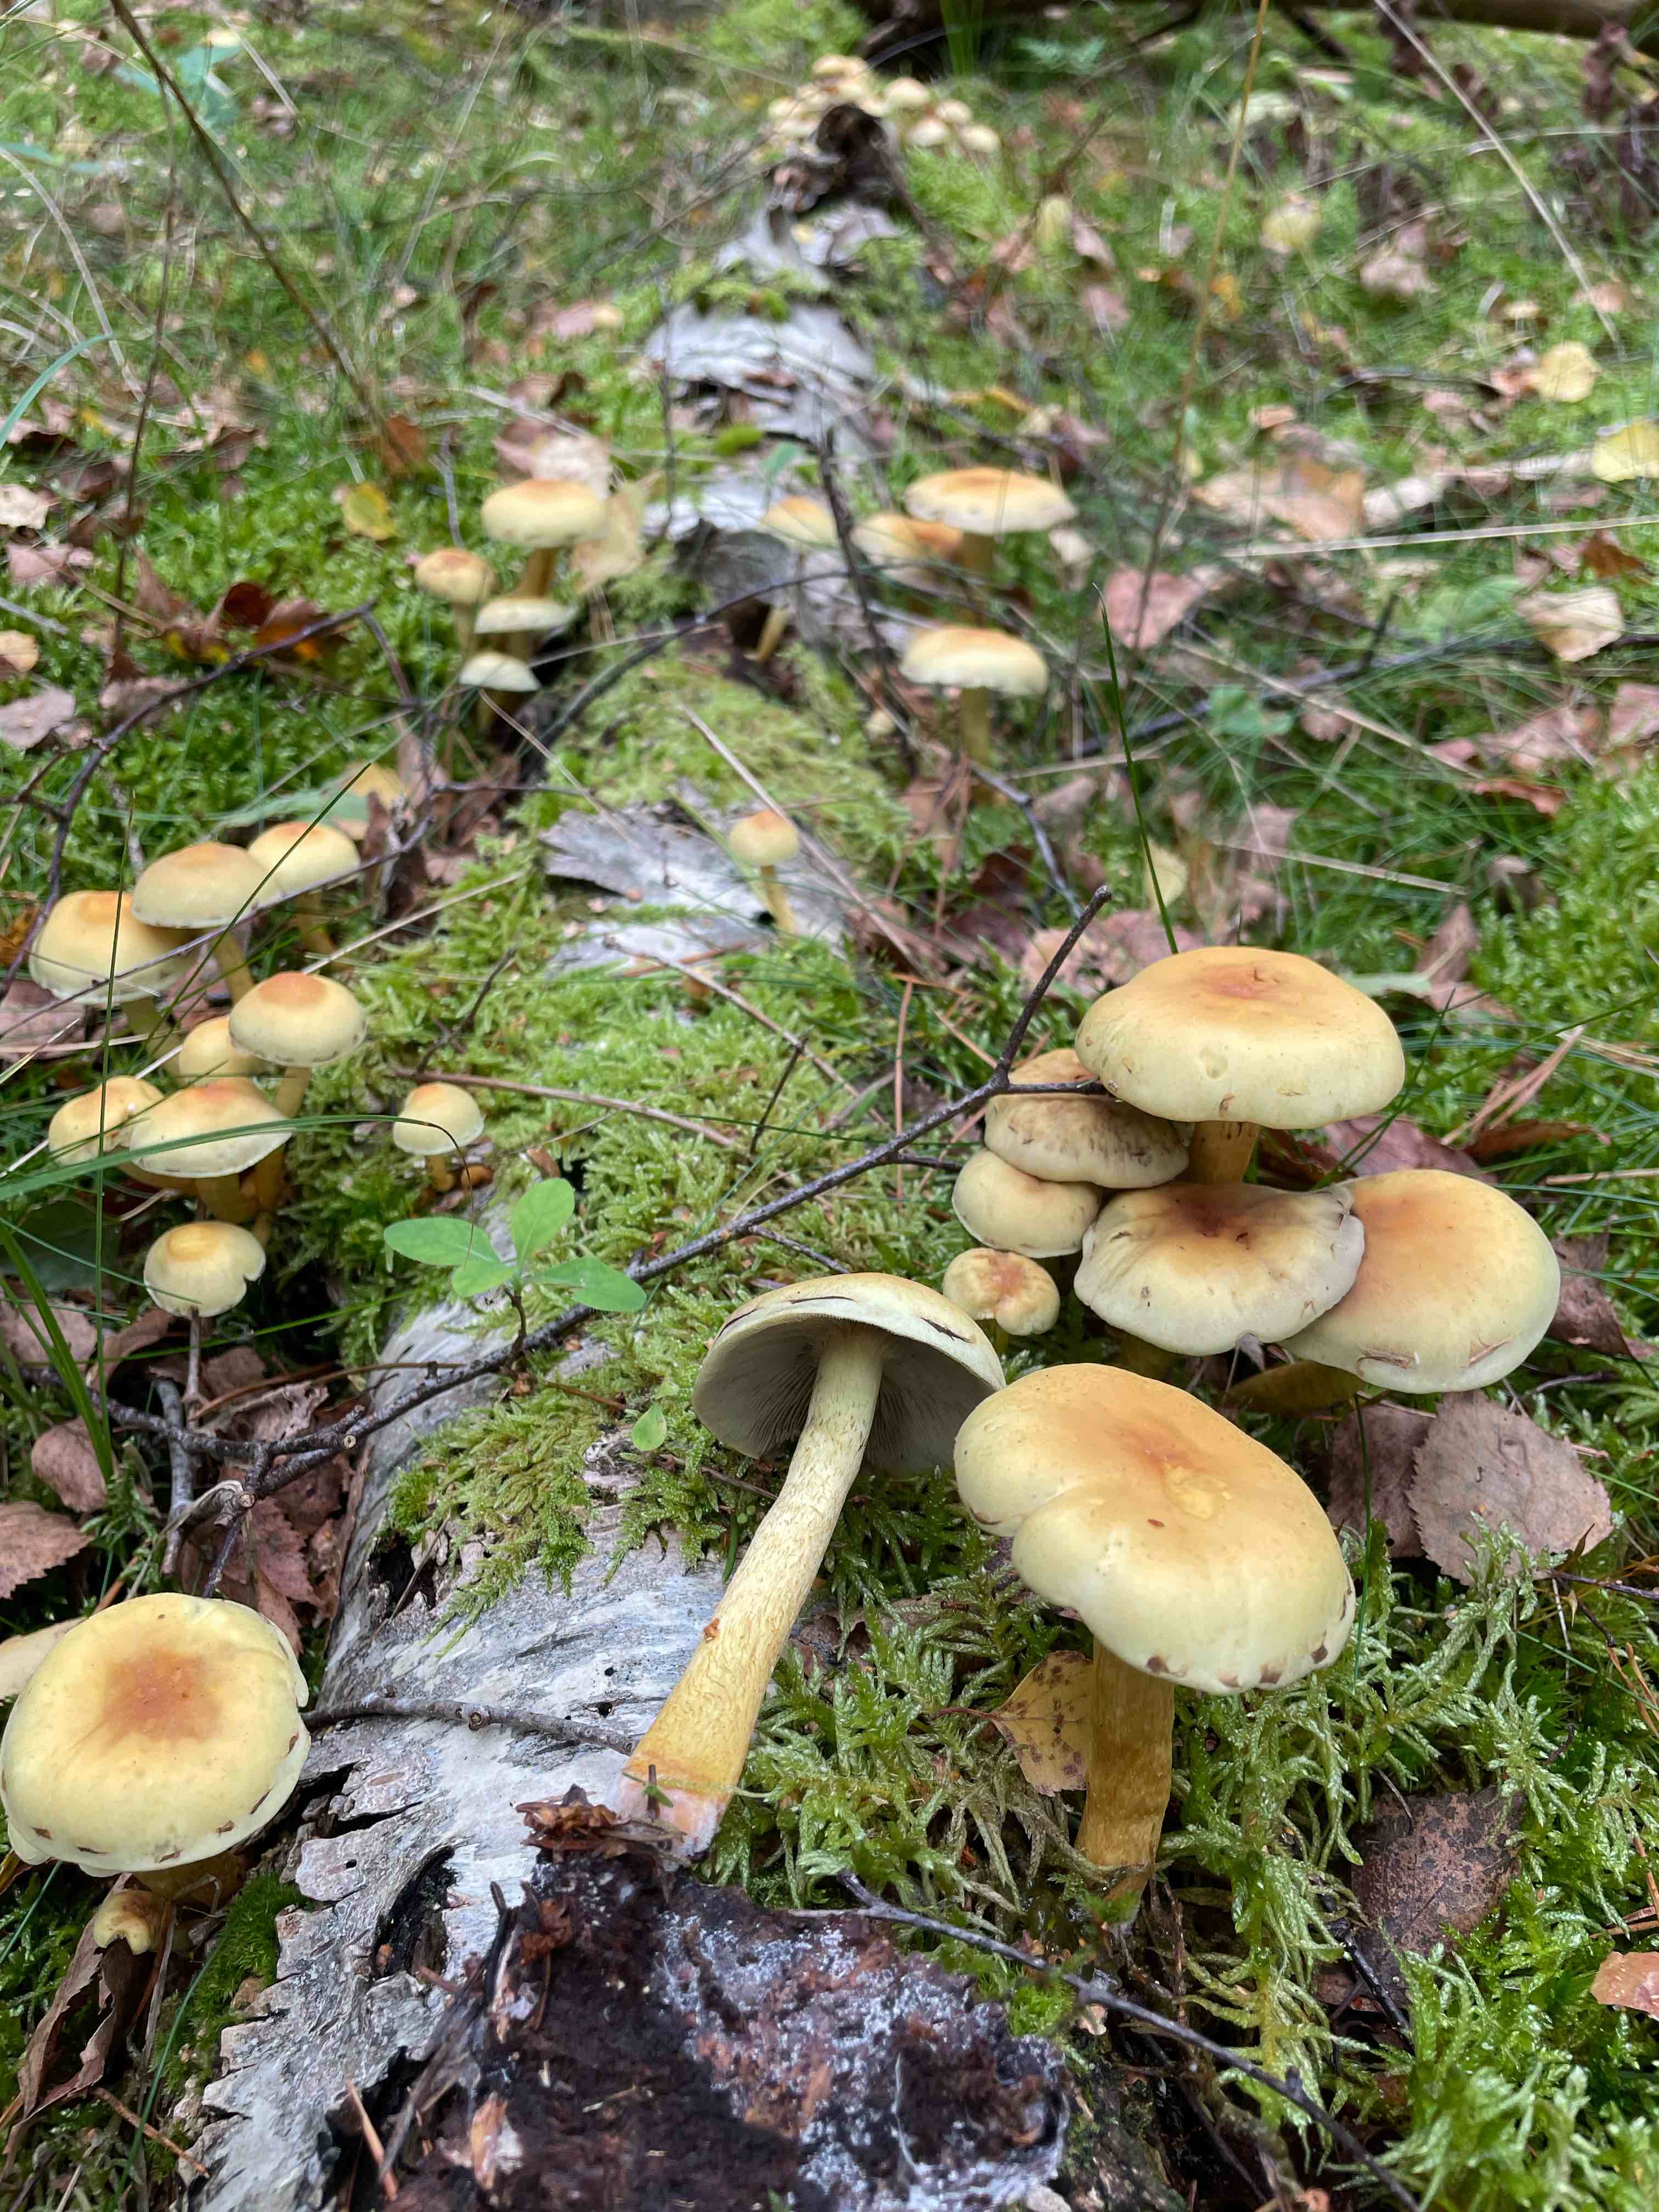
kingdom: Fungi
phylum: Basidiomycota
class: Agaricomycetes
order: Agaricales
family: Strophariaceae
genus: Hypholoma
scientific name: Hypholoma fasciculare
